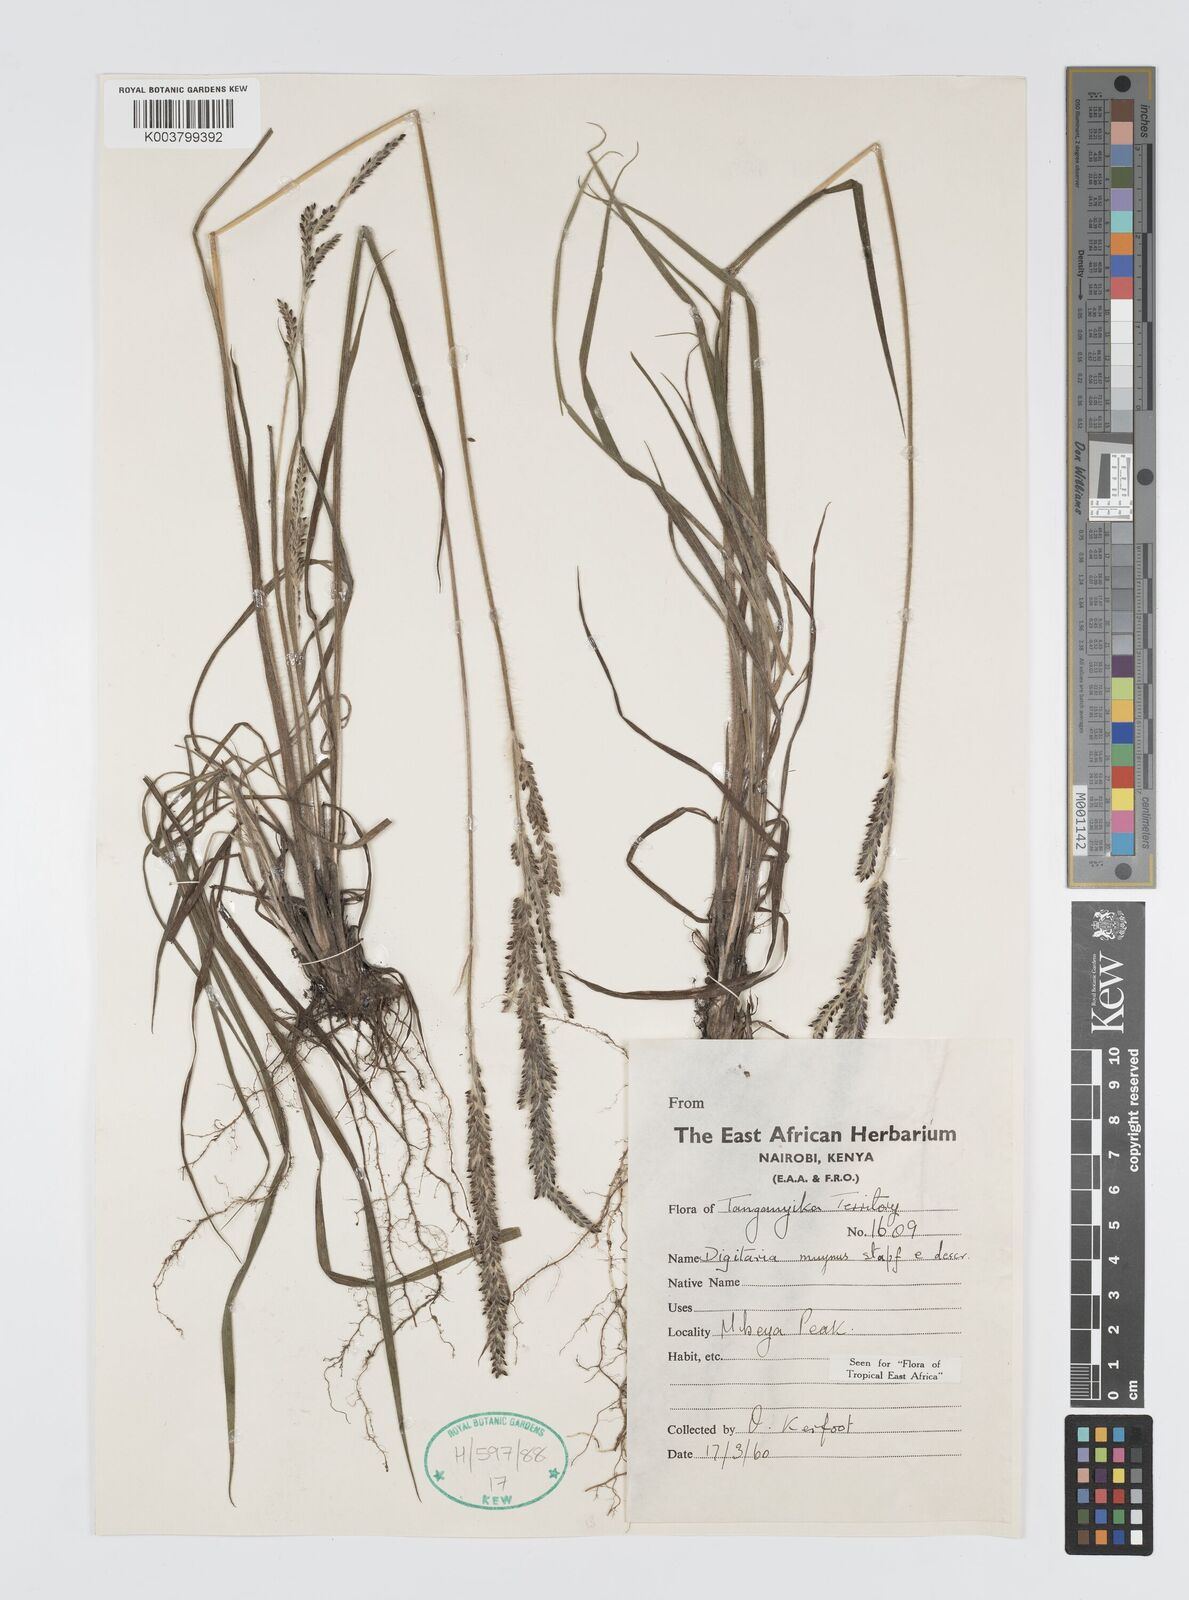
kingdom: Plantae
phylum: Tracheophyta
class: Liliopsida
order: Poales
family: Poaceae
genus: Digitaria
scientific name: Digitaria myurus
